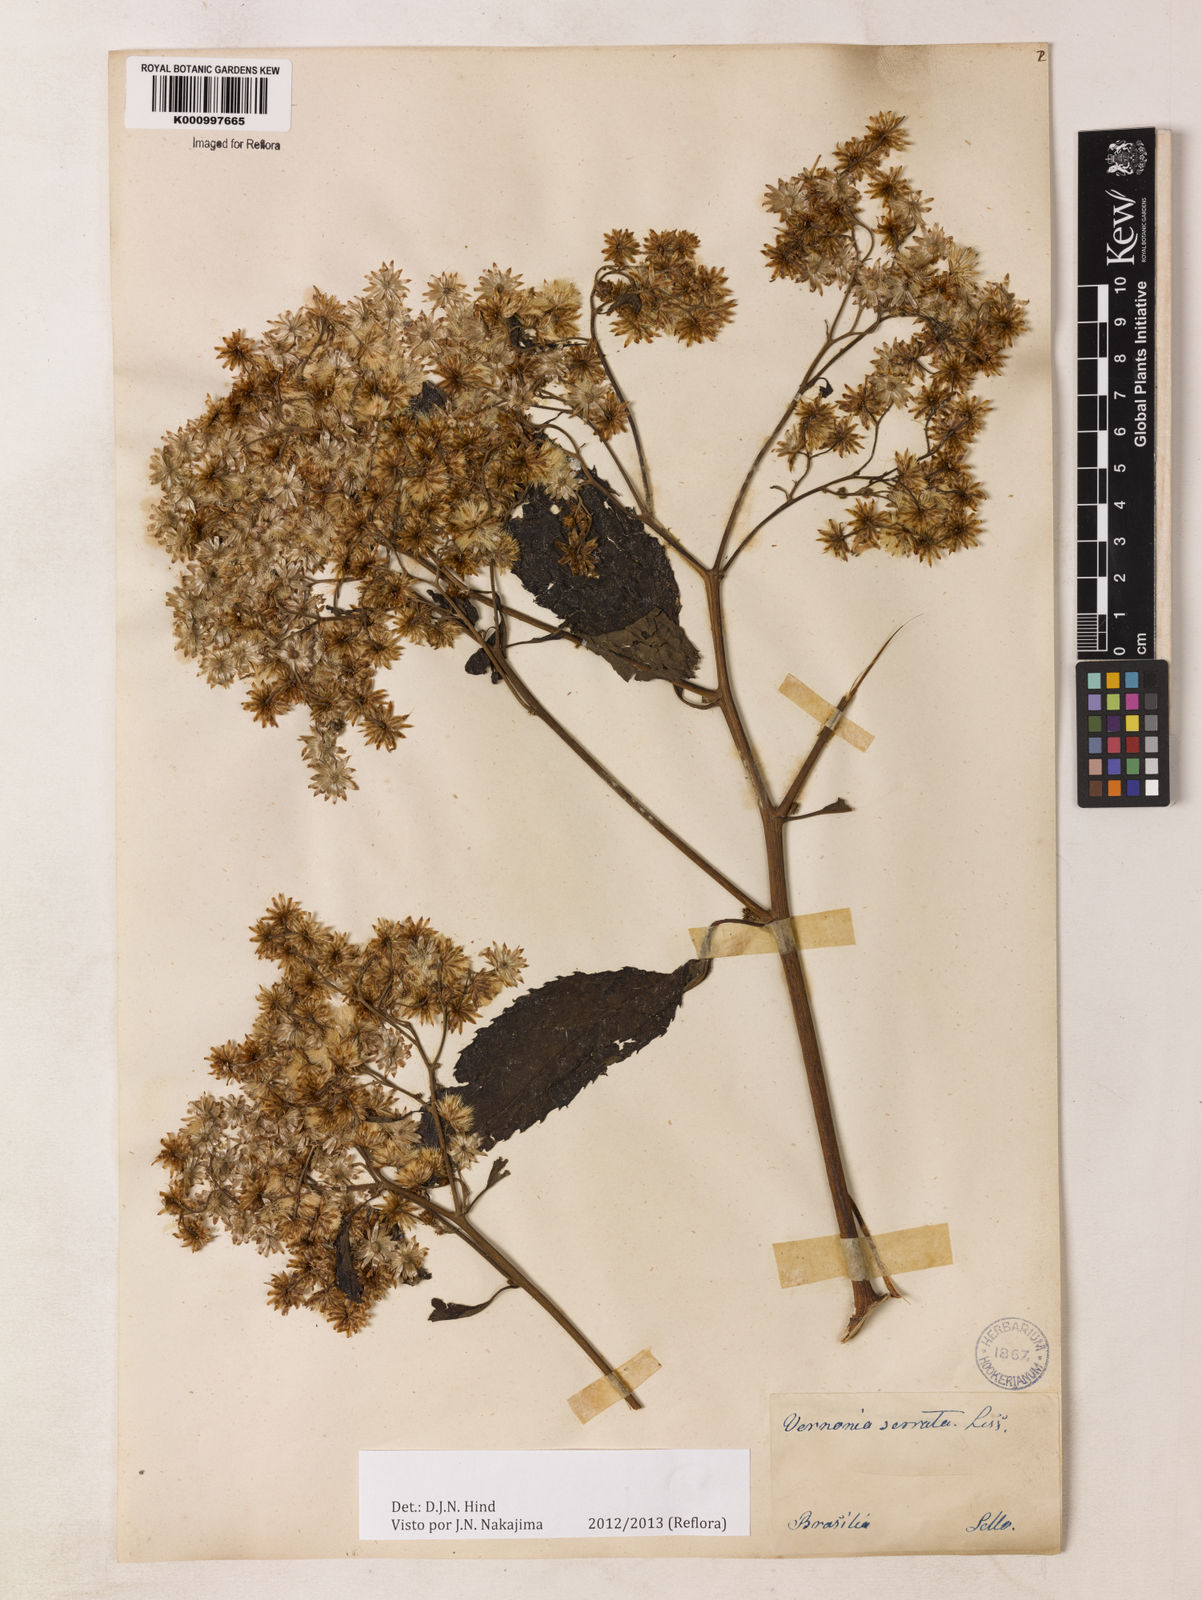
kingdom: Plantae
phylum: Tracheophyta
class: Magnoliopsida
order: Asterales
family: Asteraceae
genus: Dasyanthina
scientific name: Dasyanthina serrata
